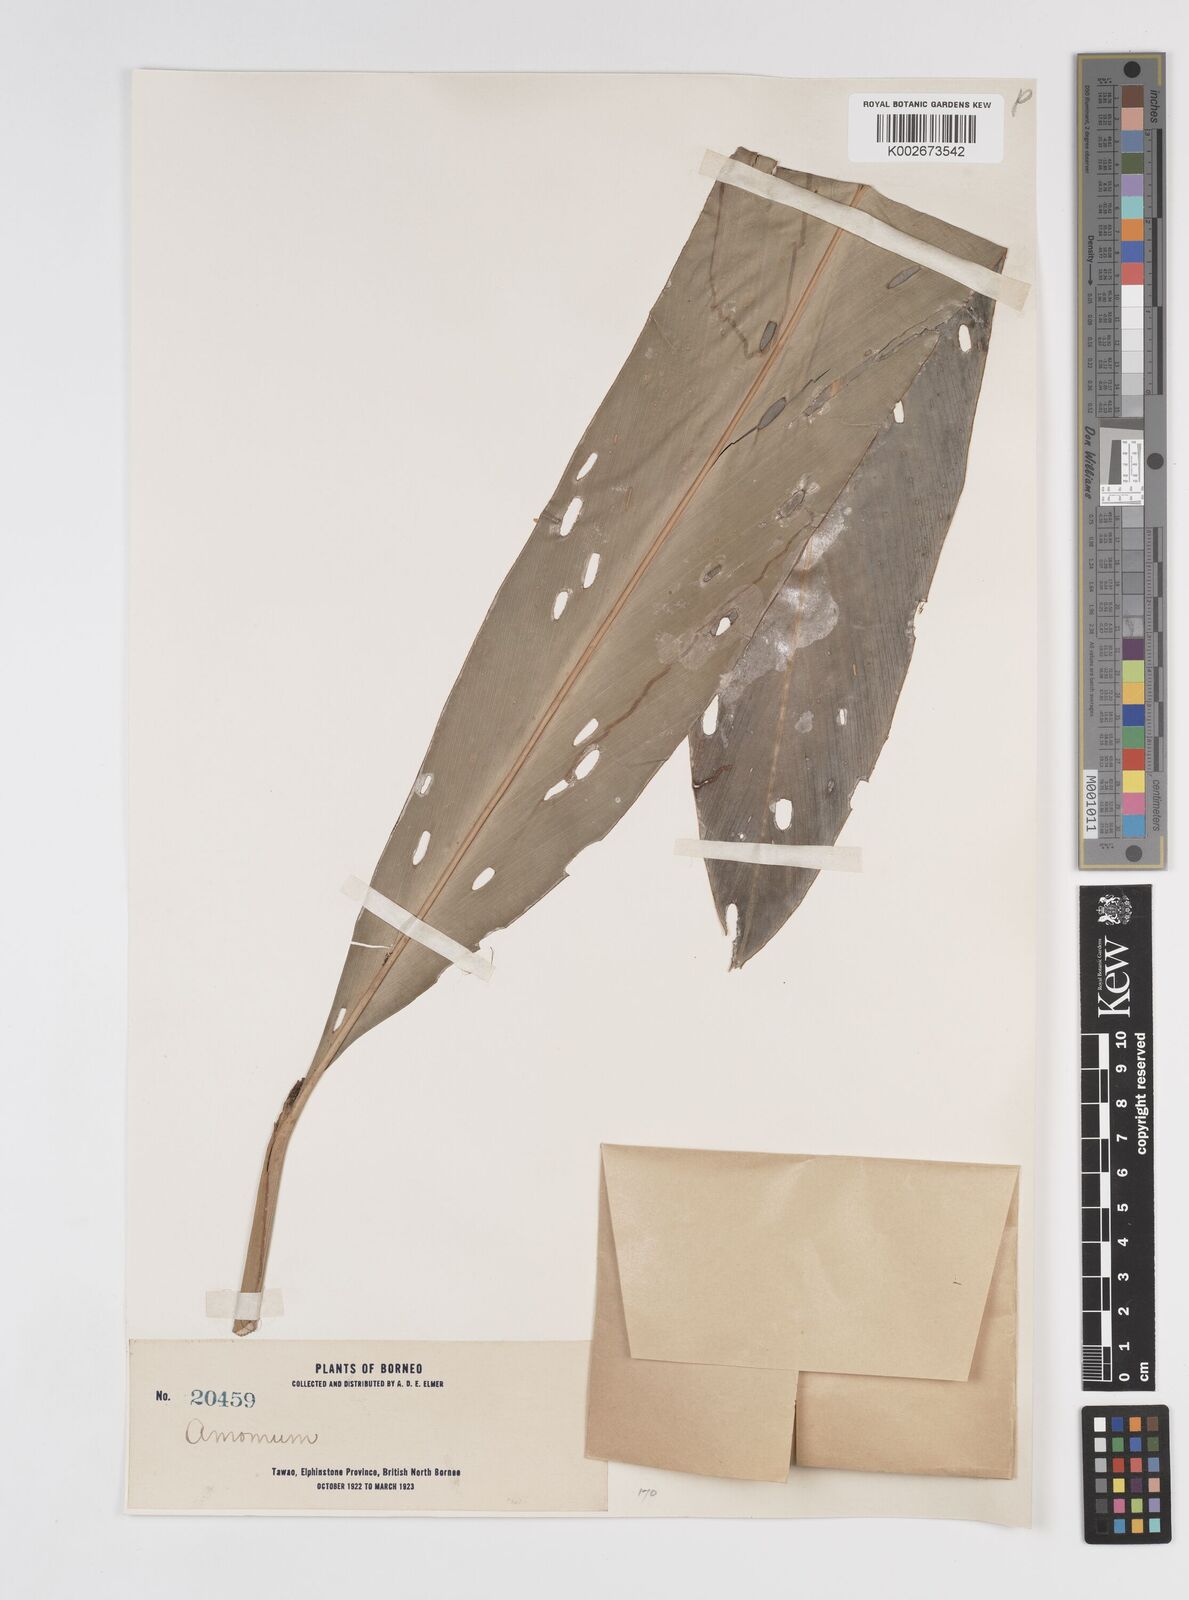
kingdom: Plantae
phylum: Tracheophyta
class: Liliopsida
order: Zingiberales
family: Zingiberaceae
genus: Amomum
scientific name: Amomum
